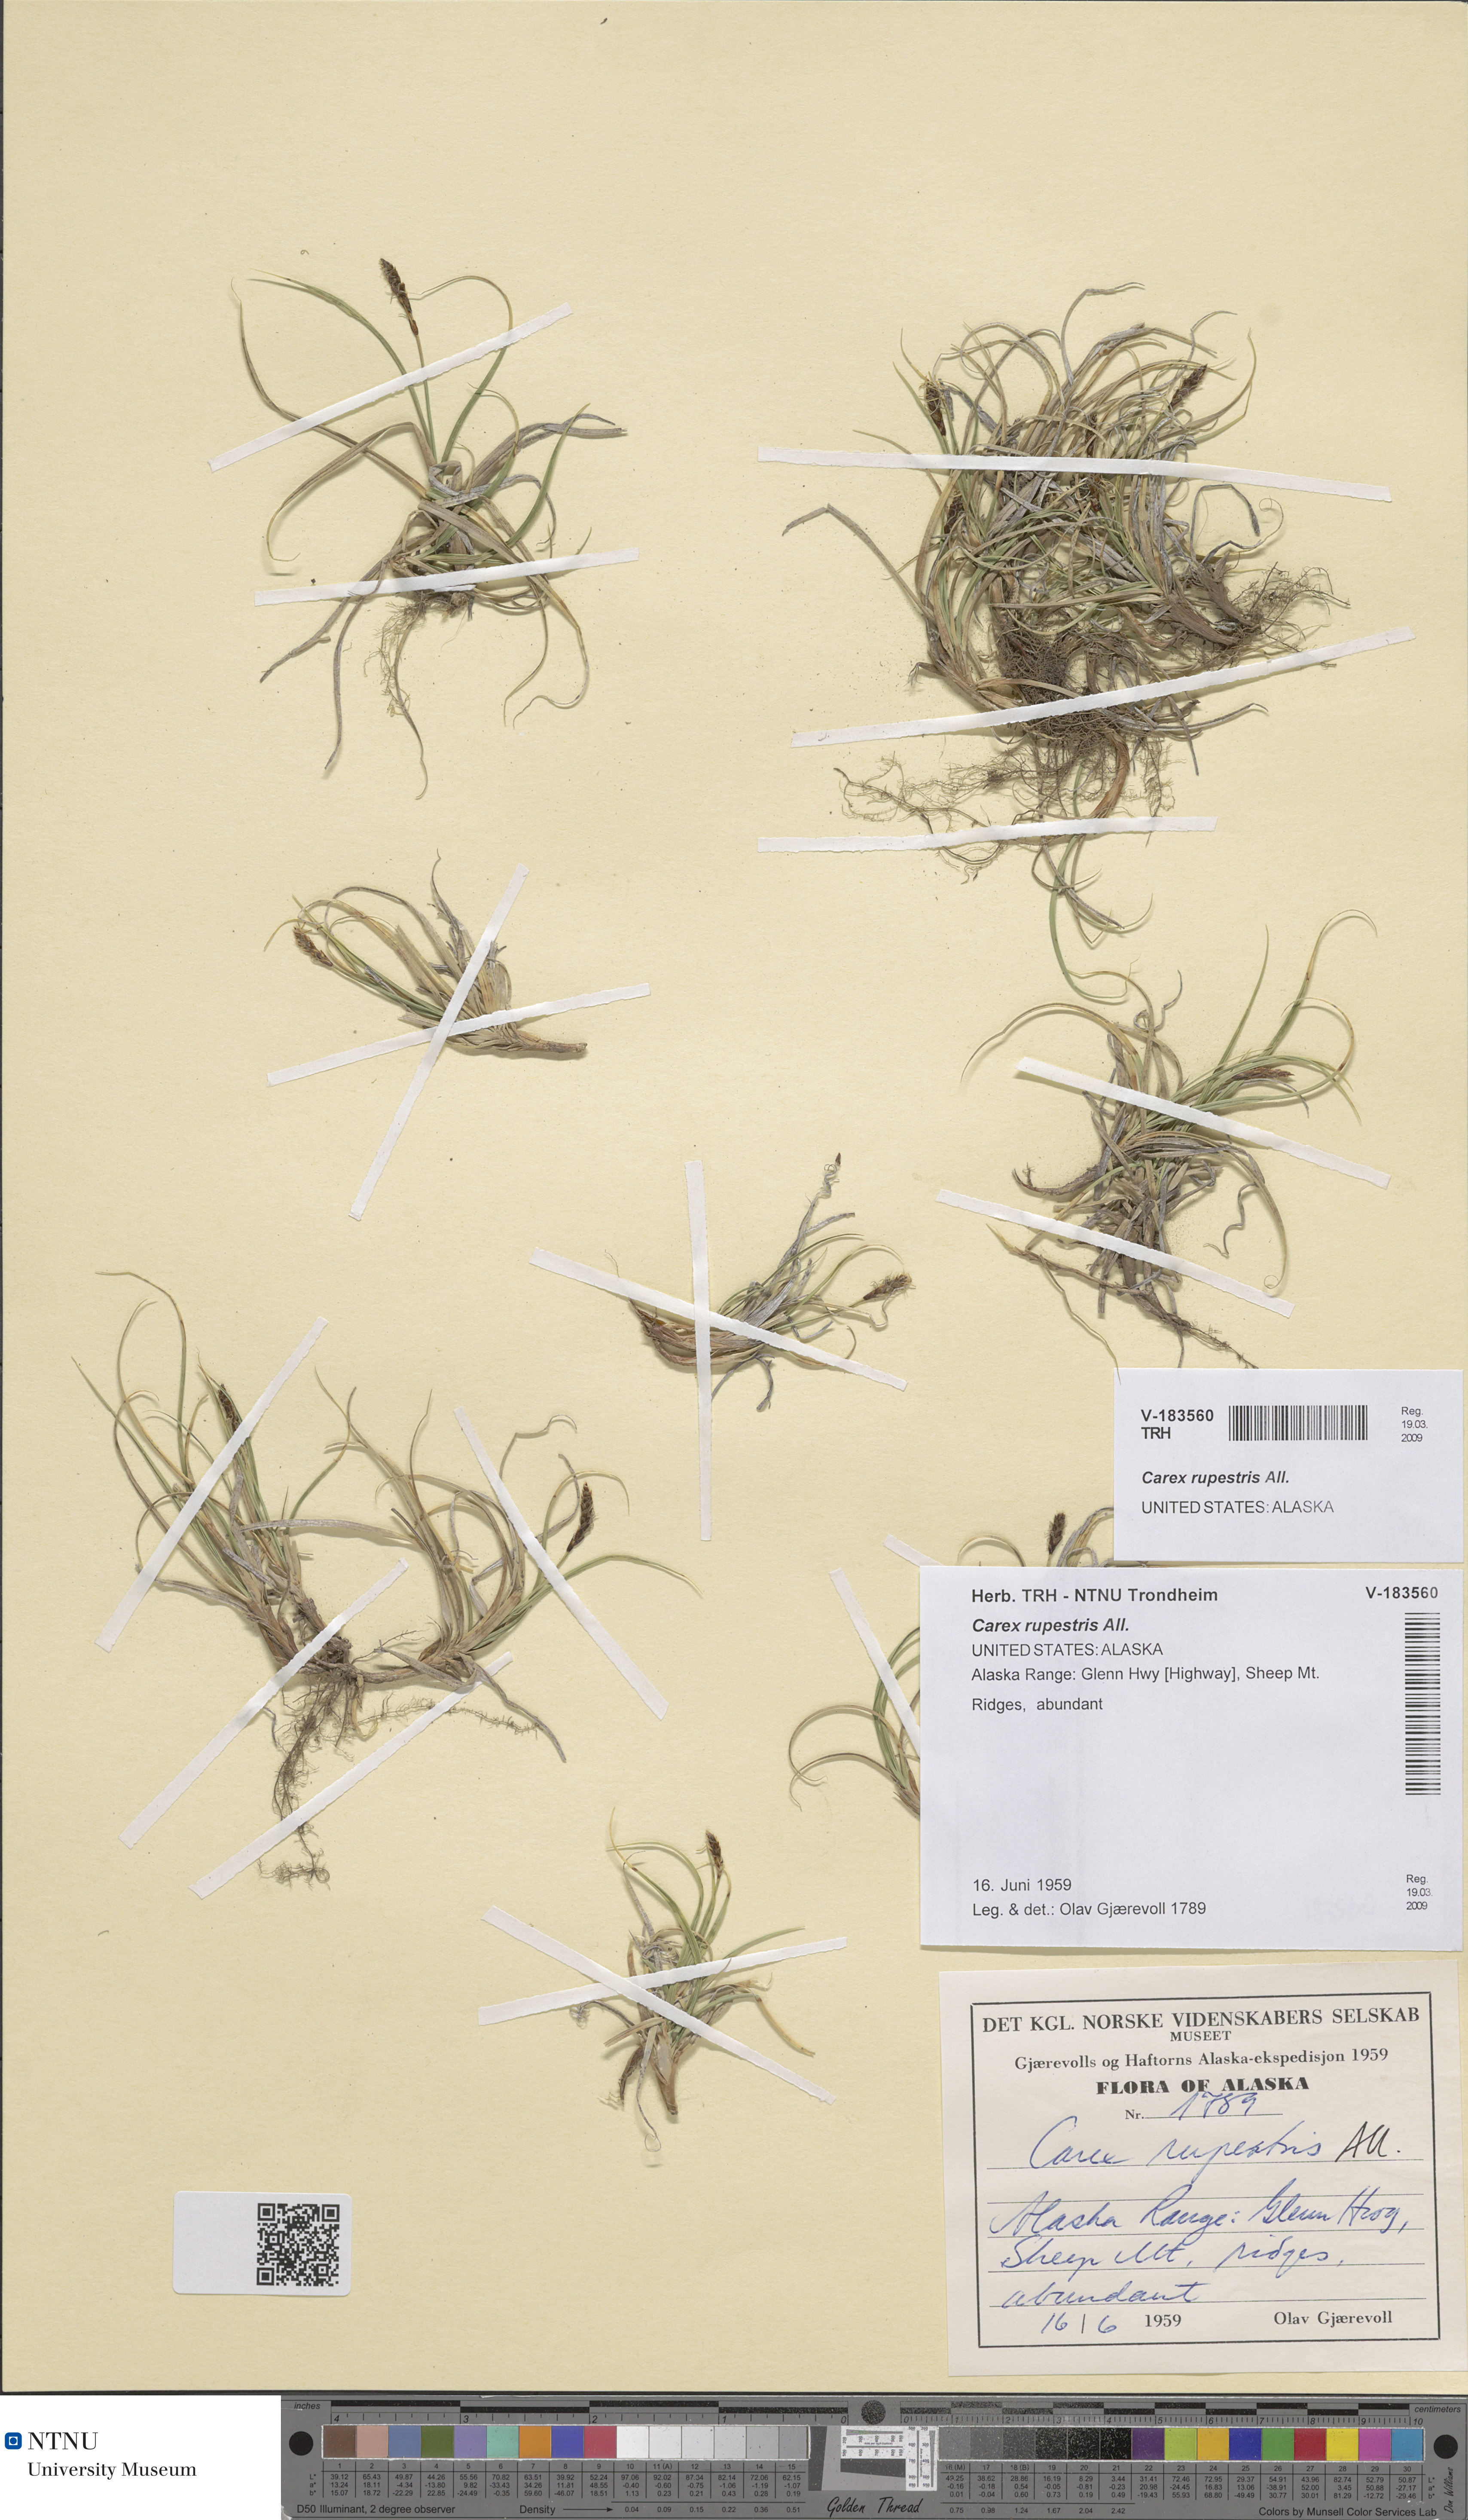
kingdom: Plantae
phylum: Tracheophyta
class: Liliopsida
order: Poales
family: Cyperaceae
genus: Carex
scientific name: Carex rupestris
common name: Rock sedge
